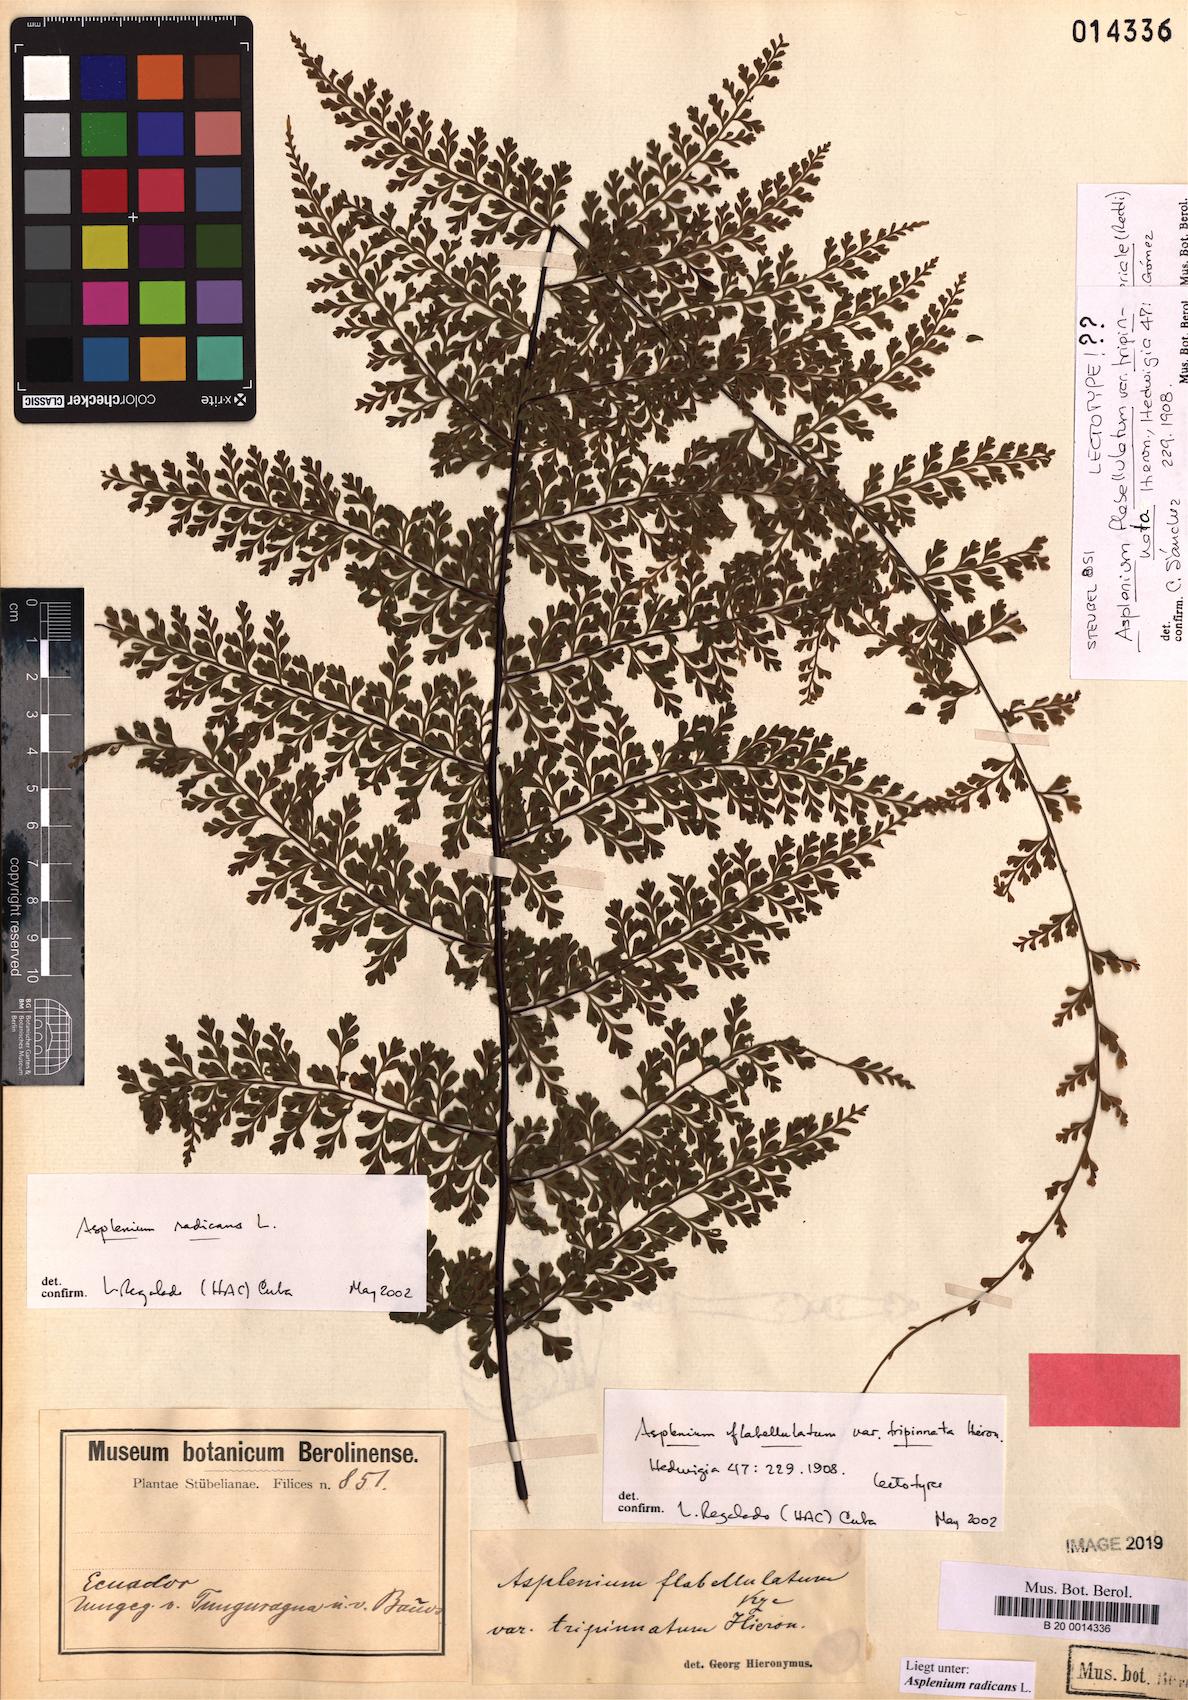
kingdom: Plantae
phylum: Tracheophyta
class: Polypodiopsida
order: Polypodiales
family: Aspleniaceae
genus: Asplenium
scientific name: Asplenium radicans
